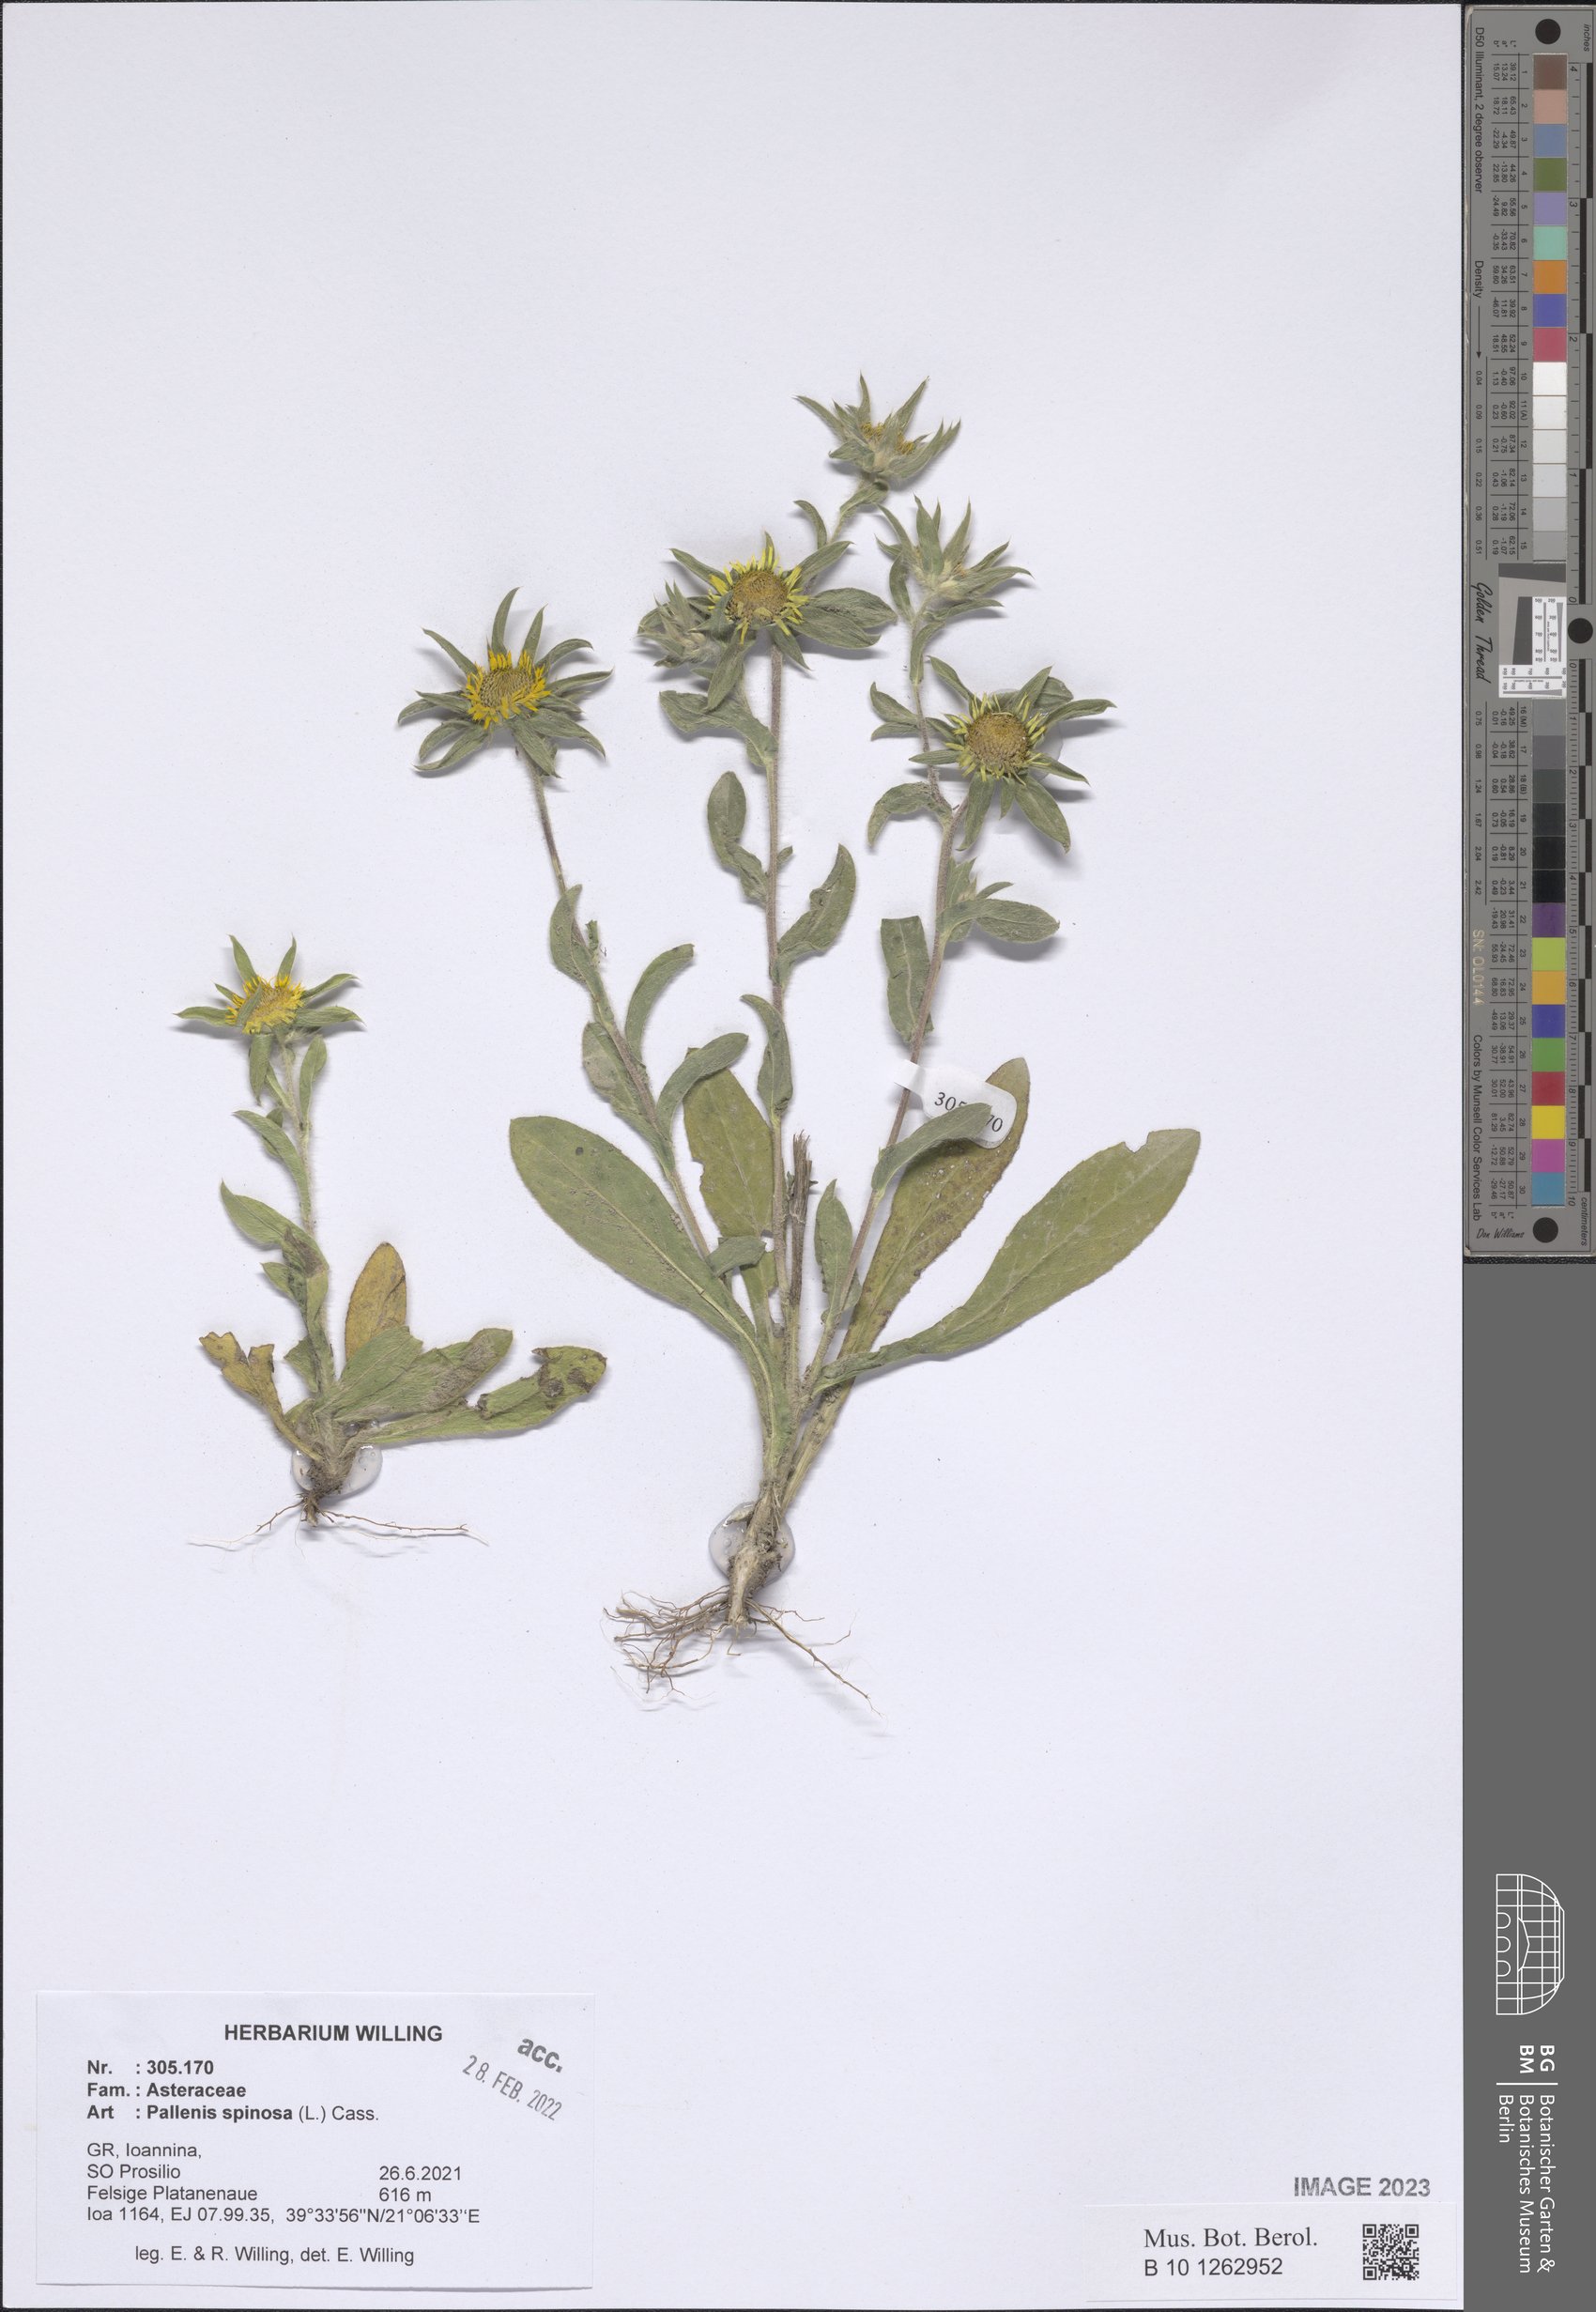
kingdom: Plantae
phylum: Tracheophyta
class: Magnoliopsida
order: Asterales
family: Asteraceae
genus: Pallenis
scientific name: Pallenis spinosa
